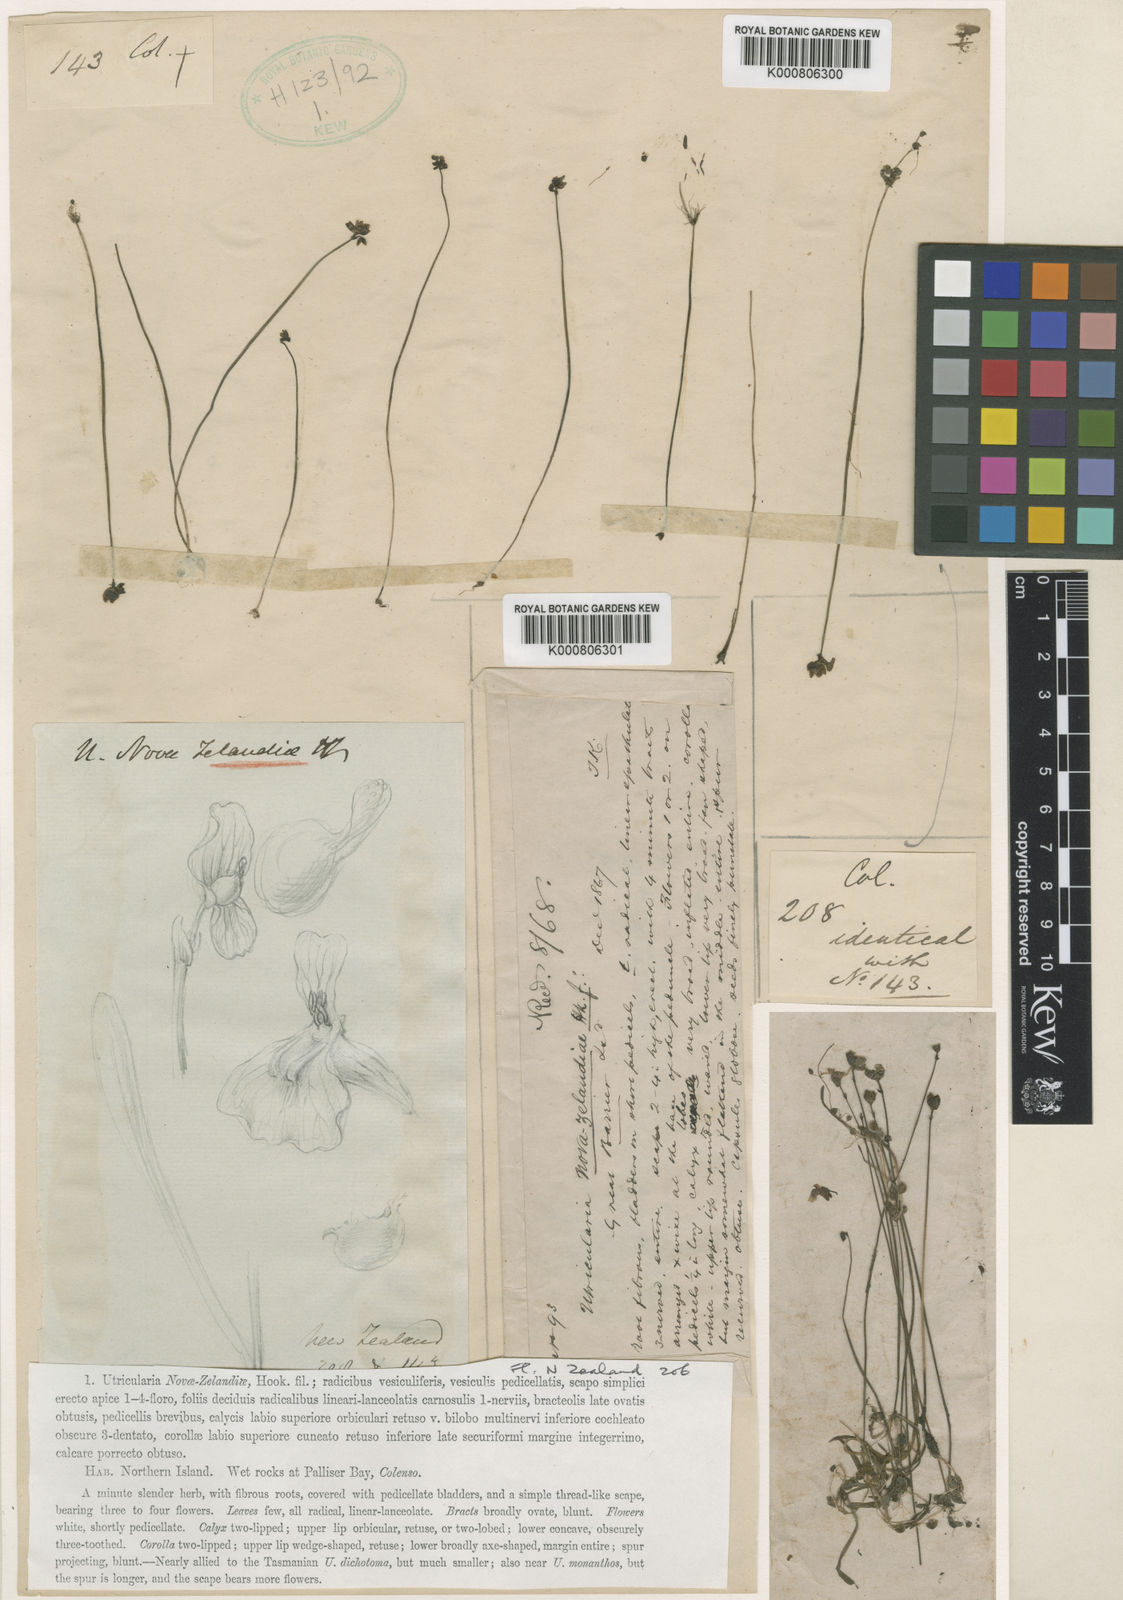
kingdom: Plantae
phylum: Tracheophyta
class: Magnoliopsida
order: Lamiales
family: Lentibulariaceae
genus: Utricularia
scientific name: Utricularia dichotoma
